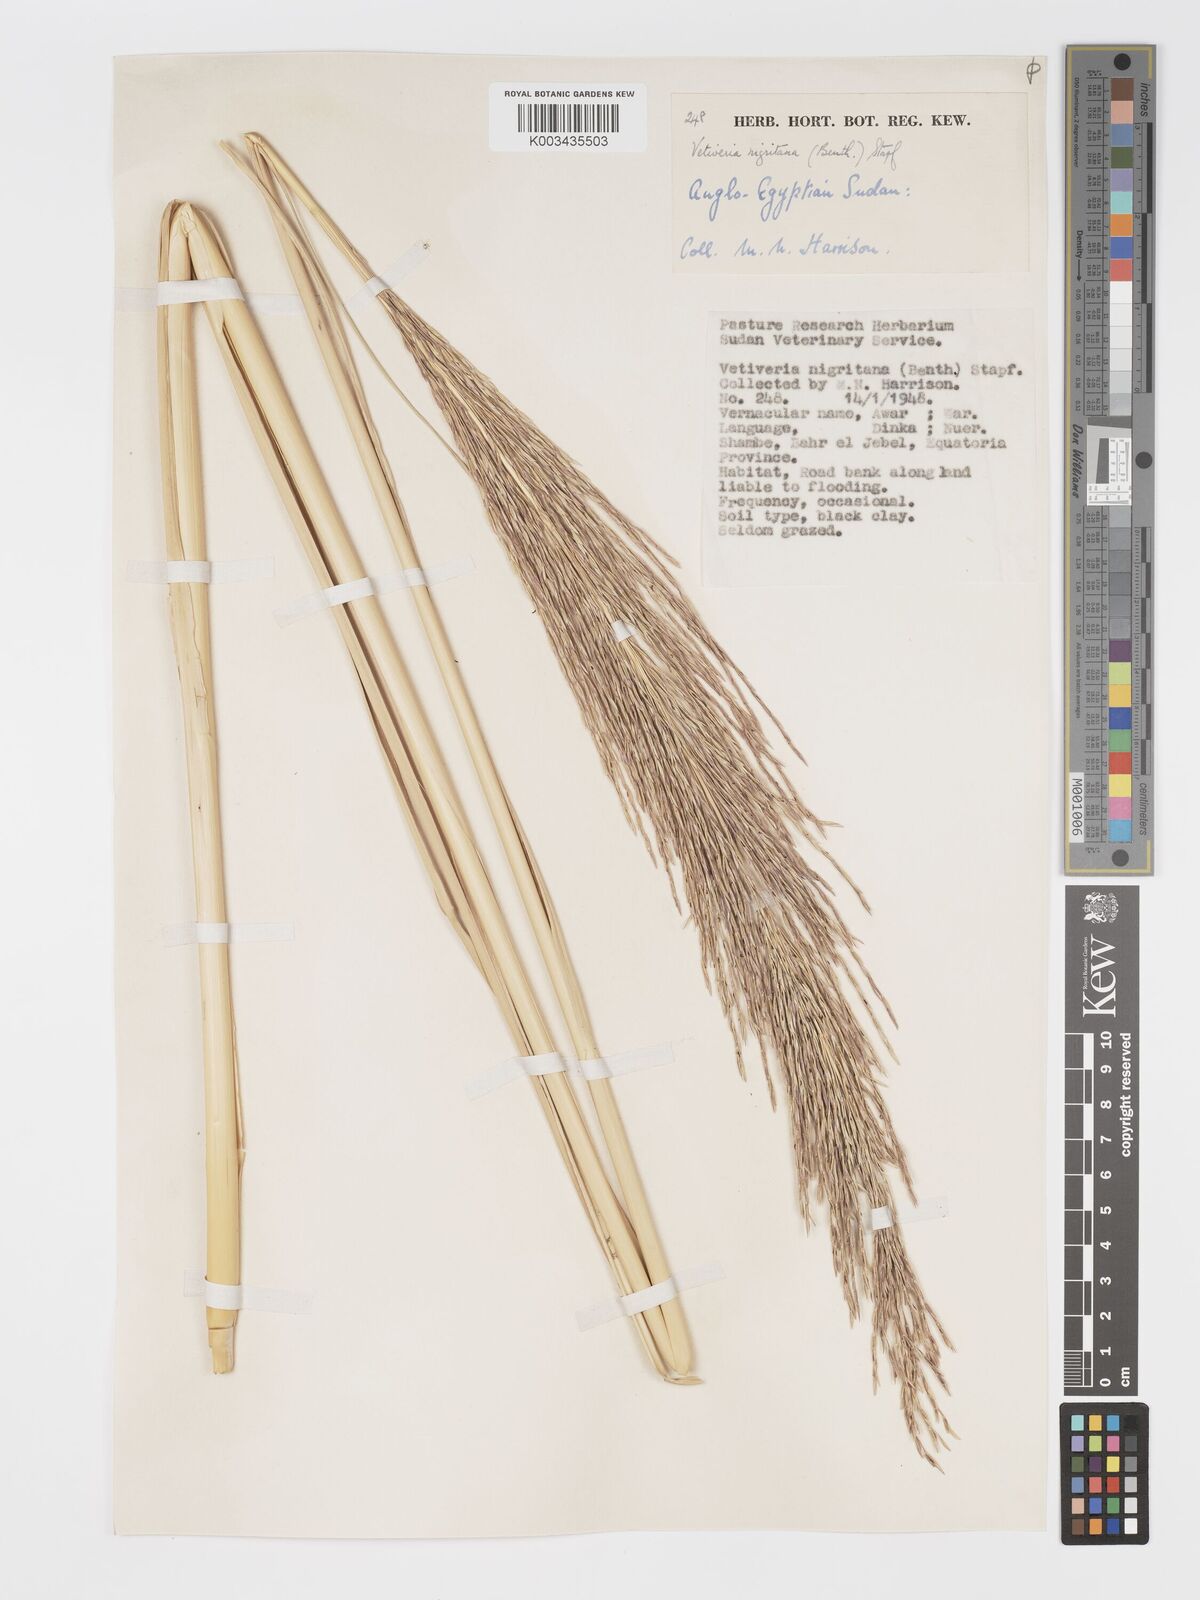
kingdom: Plantae
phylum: Tracheophyta
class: Liliopsida
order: Poales
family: Poaceae
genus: Chrysopogon
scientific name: Chrysopogon nigritanus
